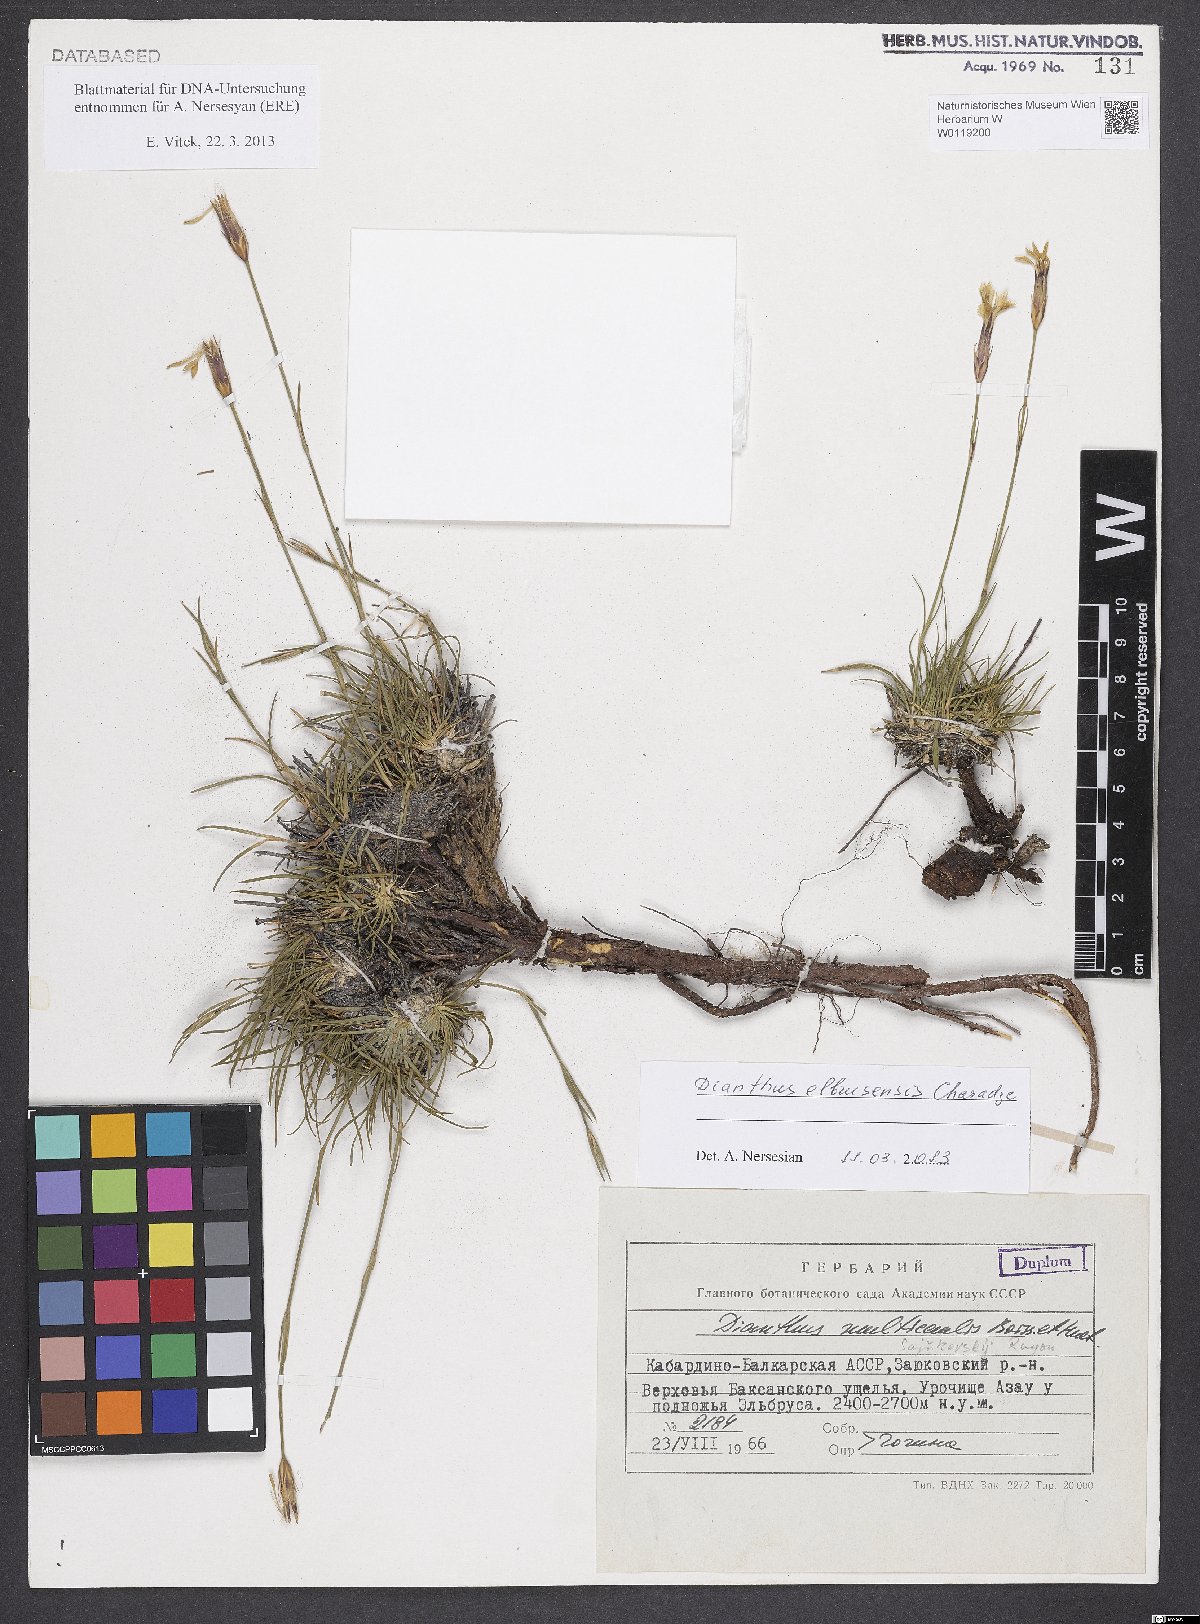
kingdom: Plantae
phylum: Tracheophyta
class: Magnoliopsida
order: Caryophyllales
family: Caryophyllaceae
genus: Dianthus
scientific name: Dianthus elbursensis
